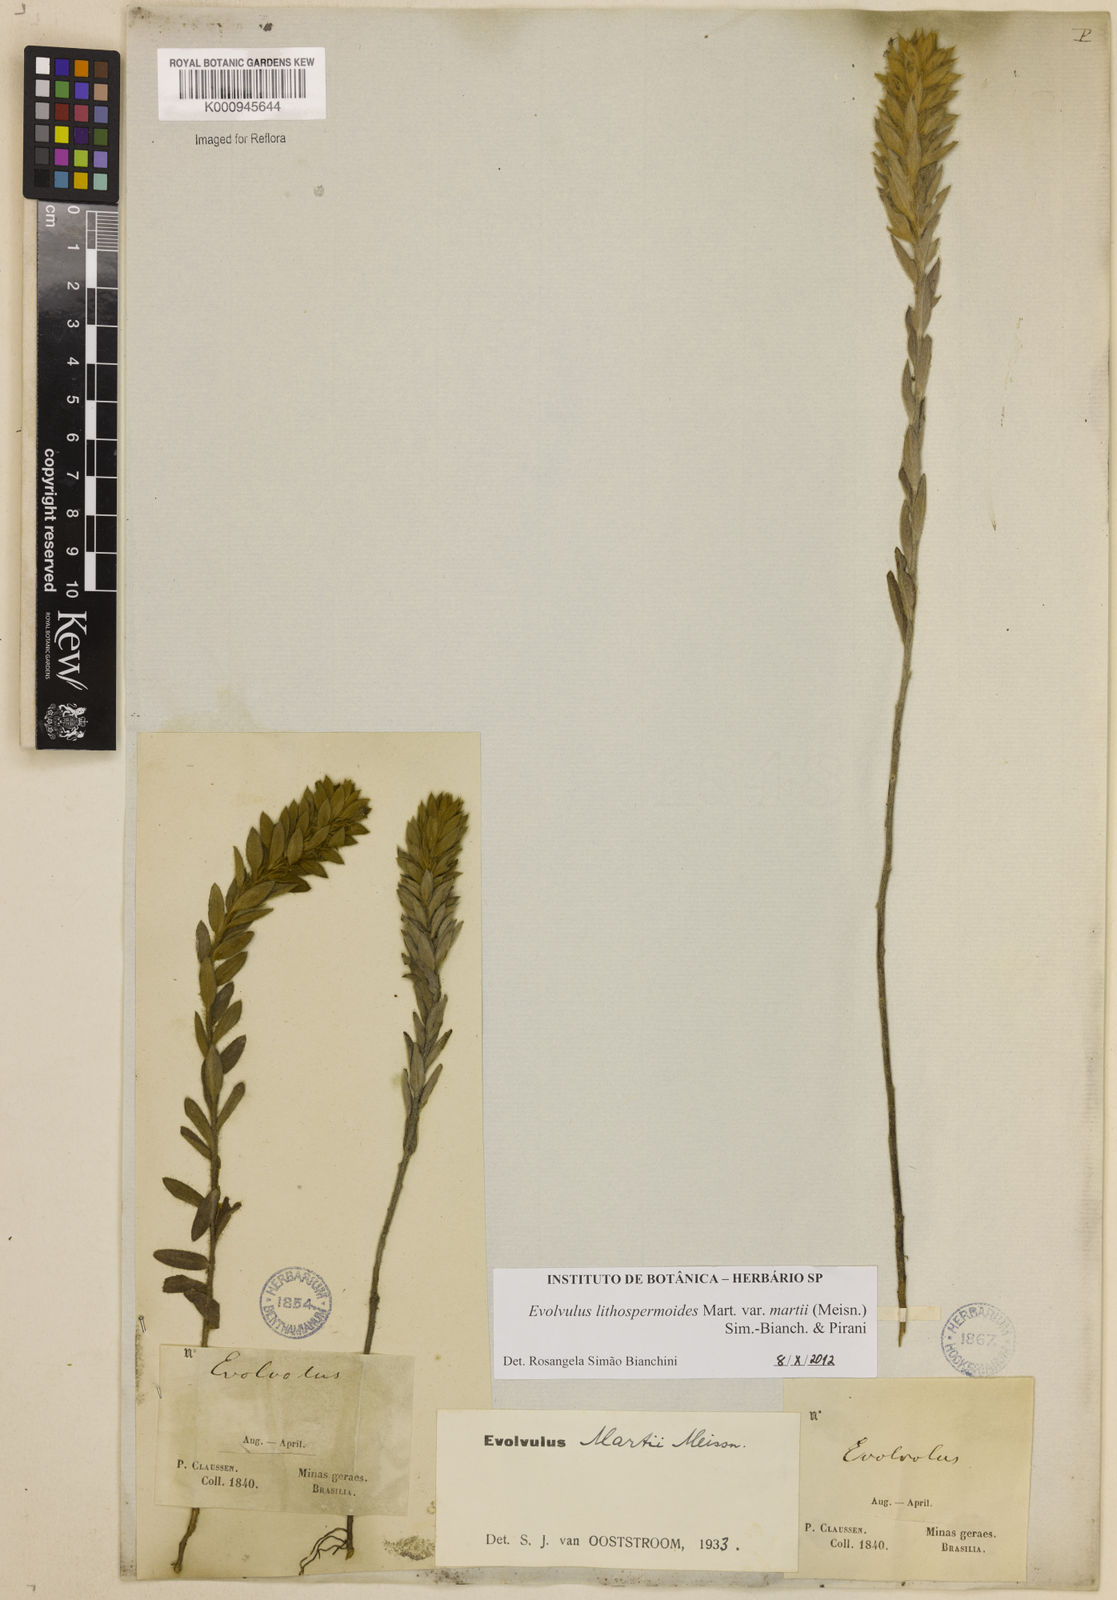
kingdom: Plantae
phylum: Tracheophyta
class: Magnoliopsida
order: Solanales
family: Convolvulaceae
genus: Evolvulus
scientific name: Evolvulus
